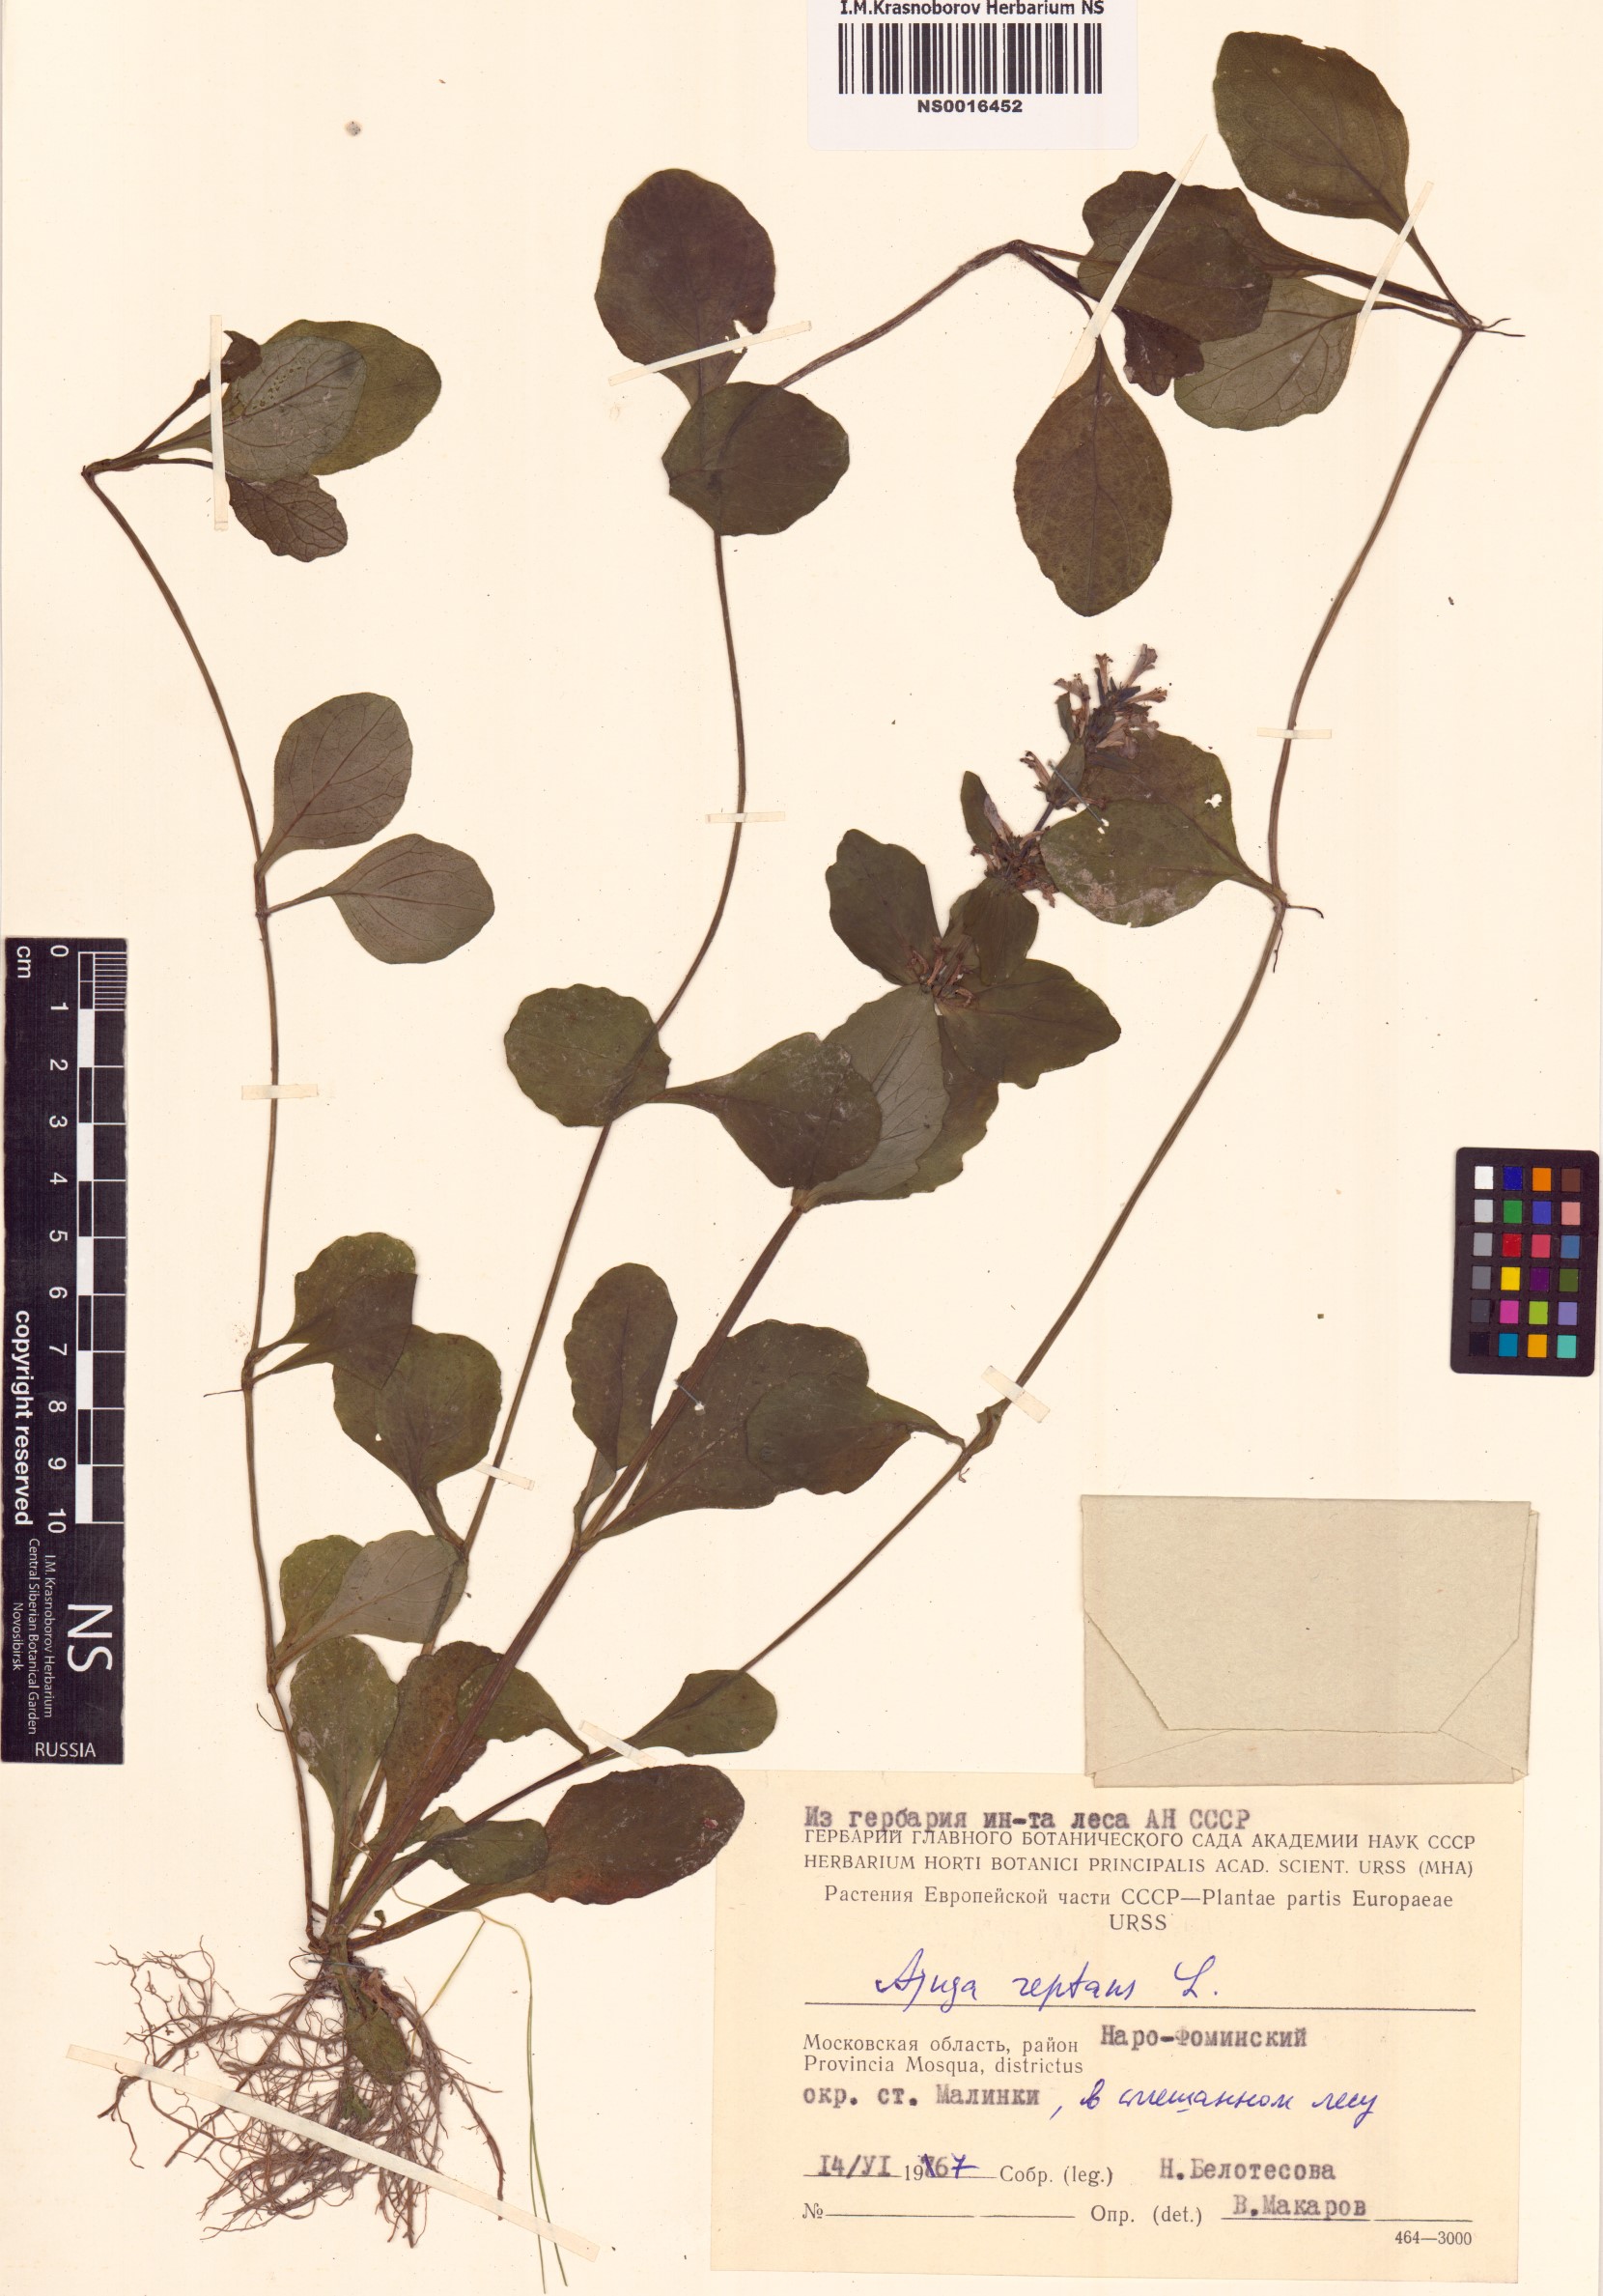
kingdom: Plantae
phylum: Tracheophyta
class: Magnoliopsida
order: Lamiales
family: Lamiaceae
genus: Ajuga
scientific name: Ajuga reptans
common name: Bugle
